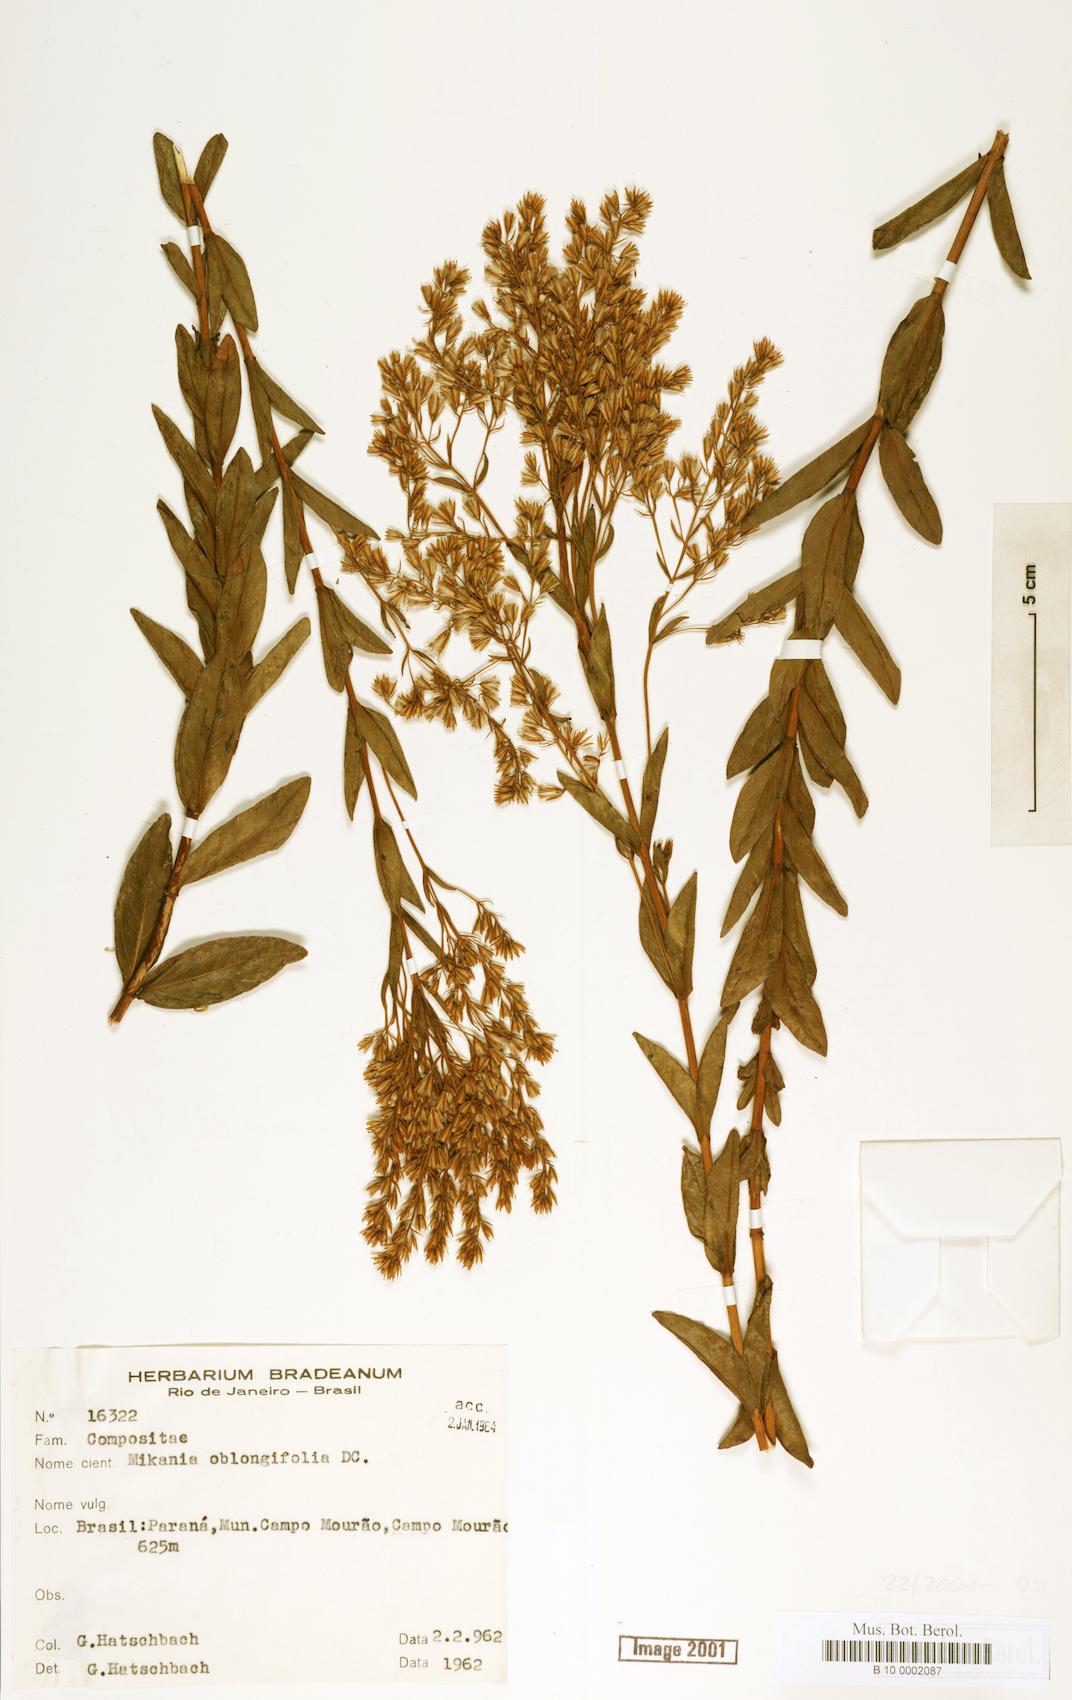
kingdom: Plantae
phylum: Tracheophyta
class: Magnoliopsida
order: Asterales
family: Asteraceae
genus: Mikania
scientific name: Mikania oblongifolia
